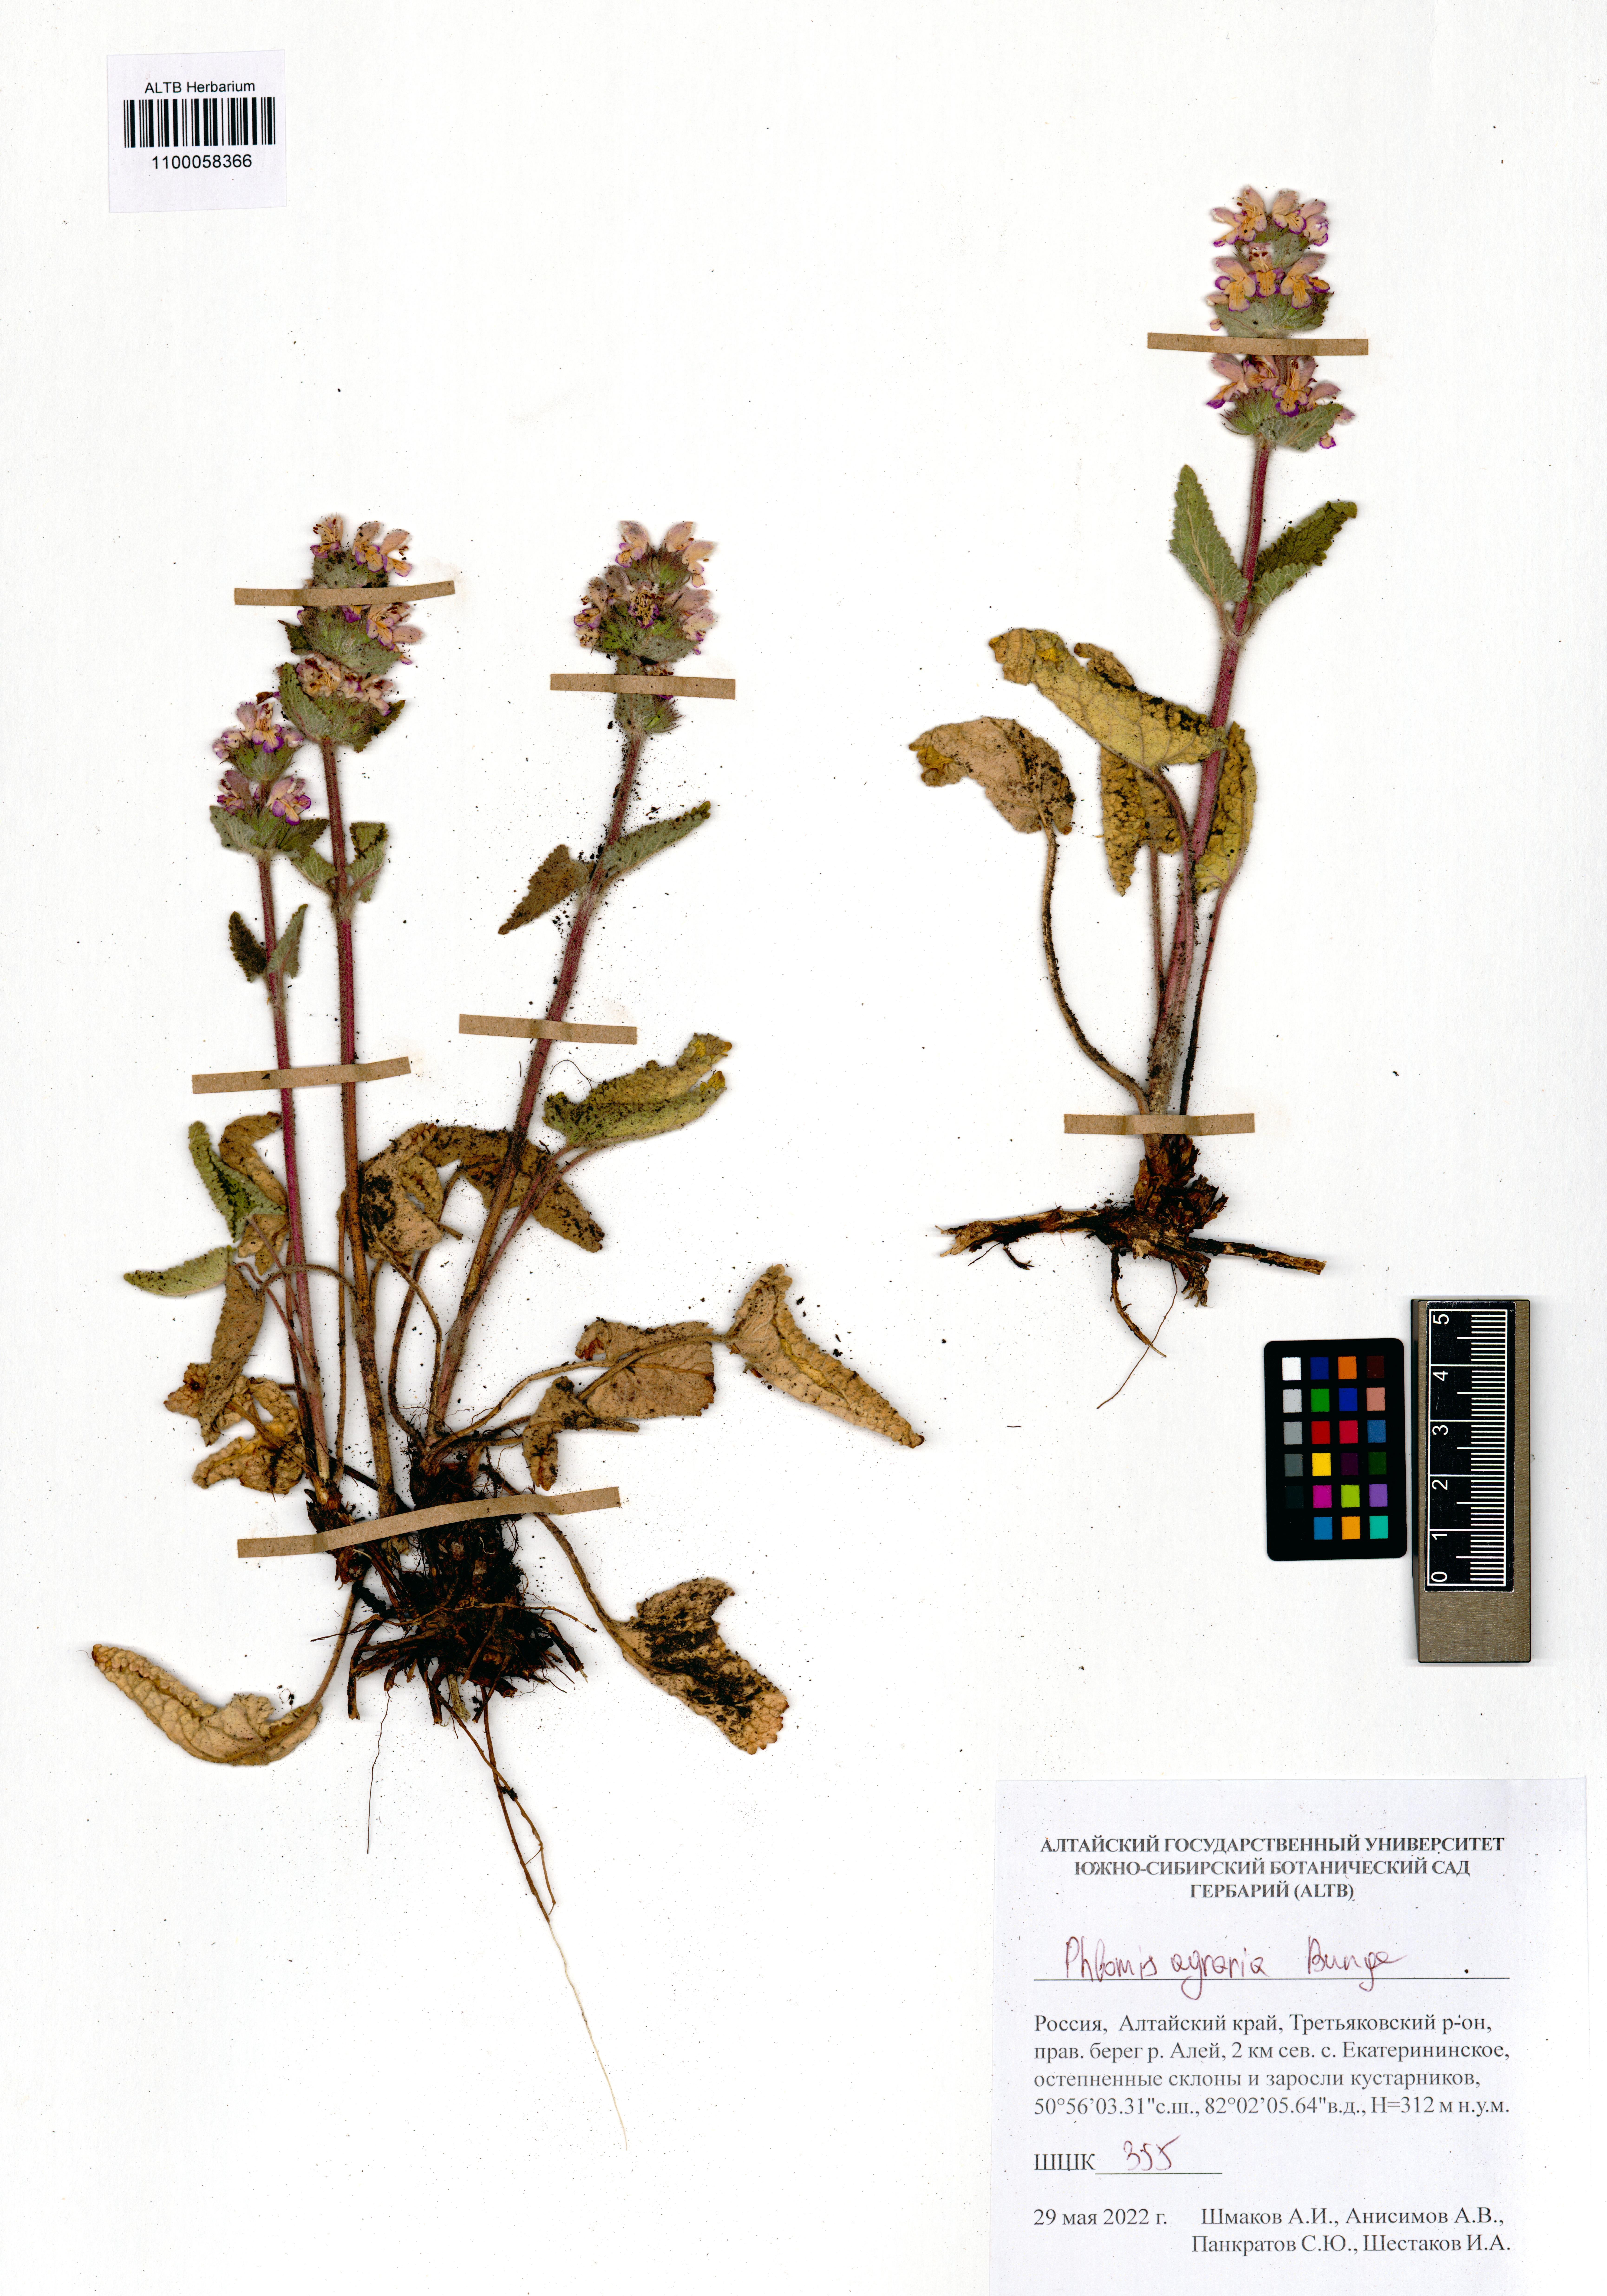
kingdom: Plantae
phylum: Tracheophyta
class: Magnoliopsida
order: Lamiales
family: Lamiaceae
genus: Phlomoides
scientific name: Phlomoides agraria
